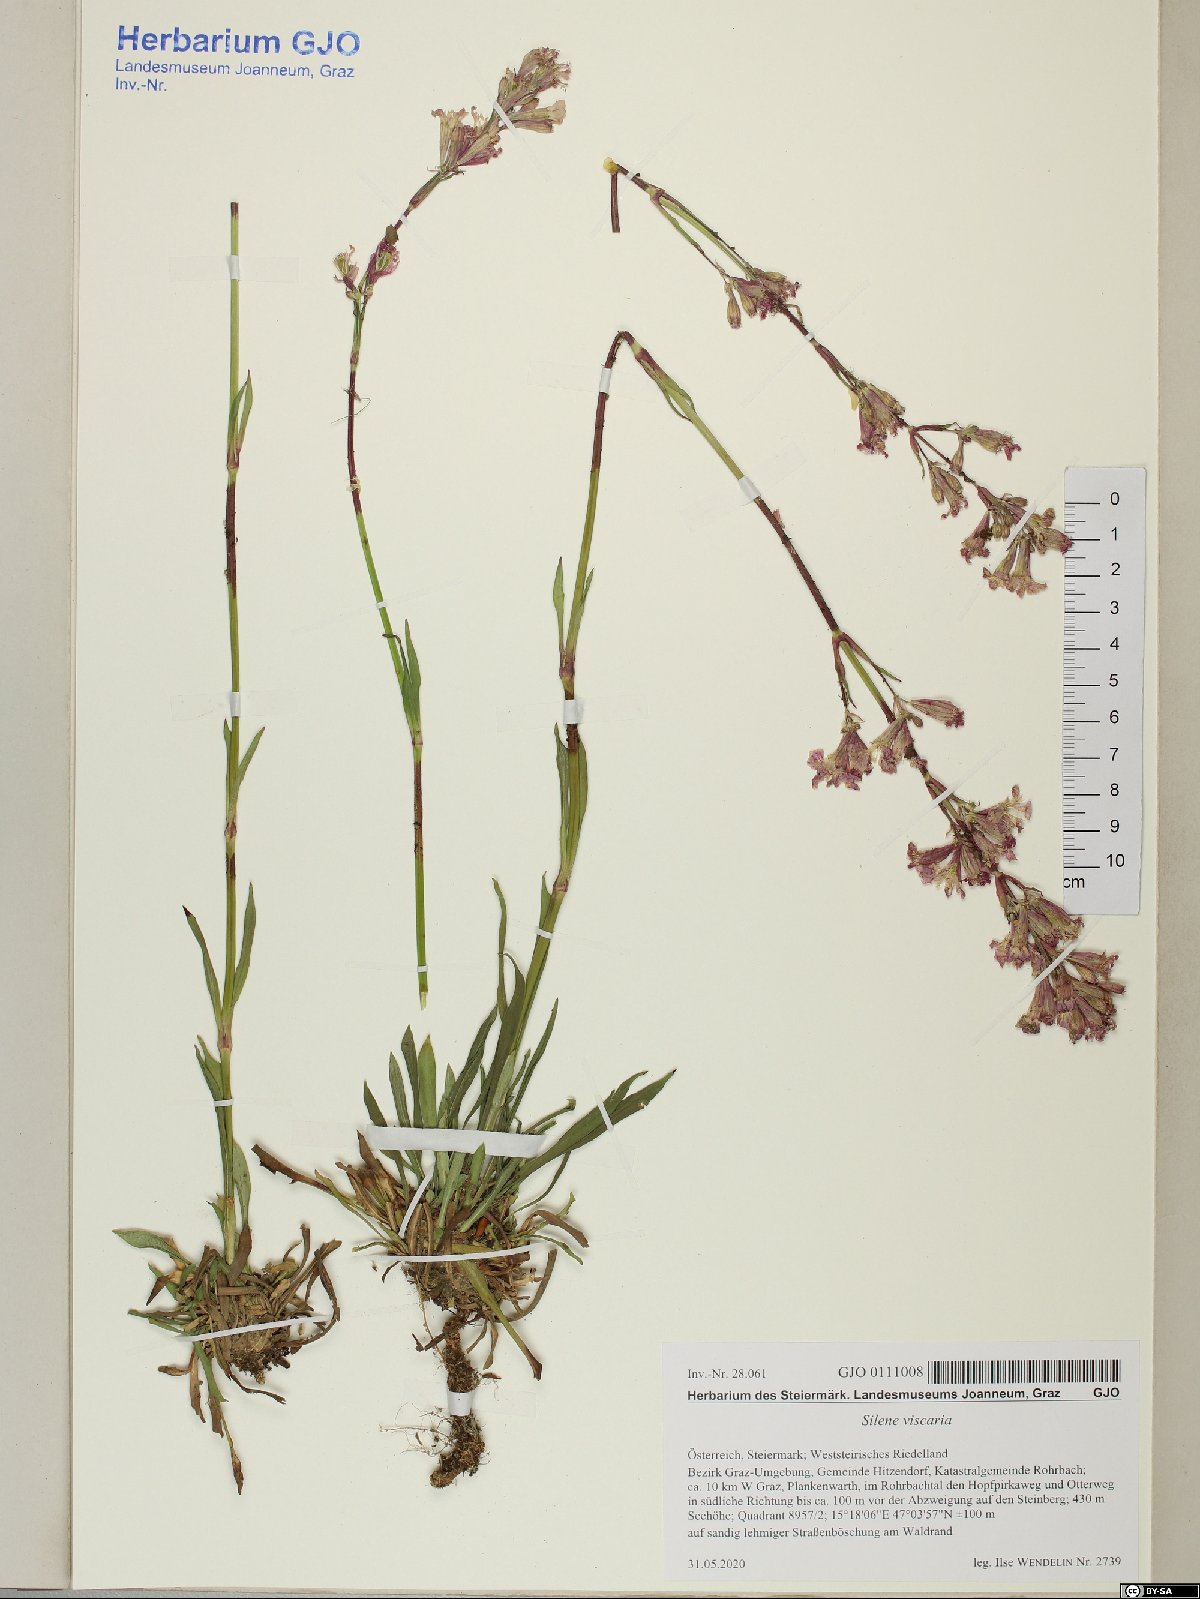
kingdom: Plantae
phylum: Tracheophyta
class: Magnoliopsida
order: Caryophyllales
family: Caryophyllaceae
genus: Viscaria
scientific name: Viscaria vulgaris
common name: Clammy campion
